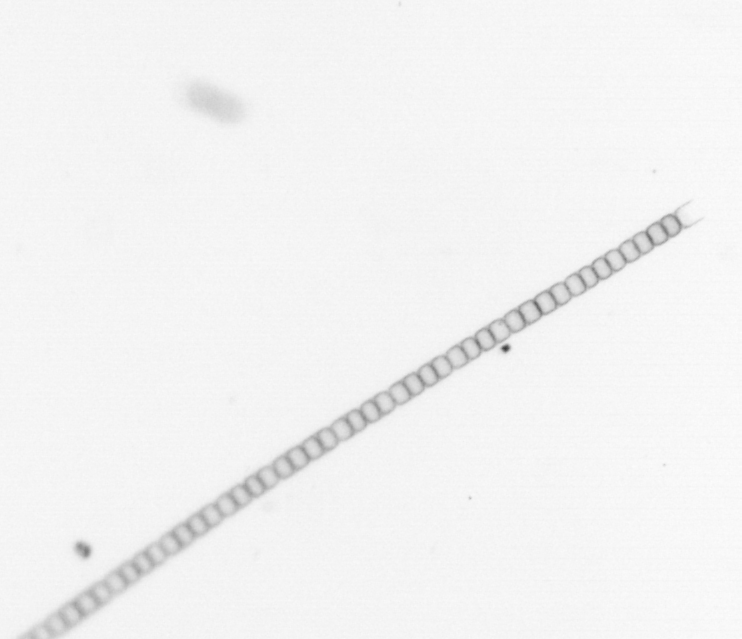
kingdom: Chromista
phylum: Ochrophyta
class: Bacillariophyceae
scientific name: Bacillariophyceae
